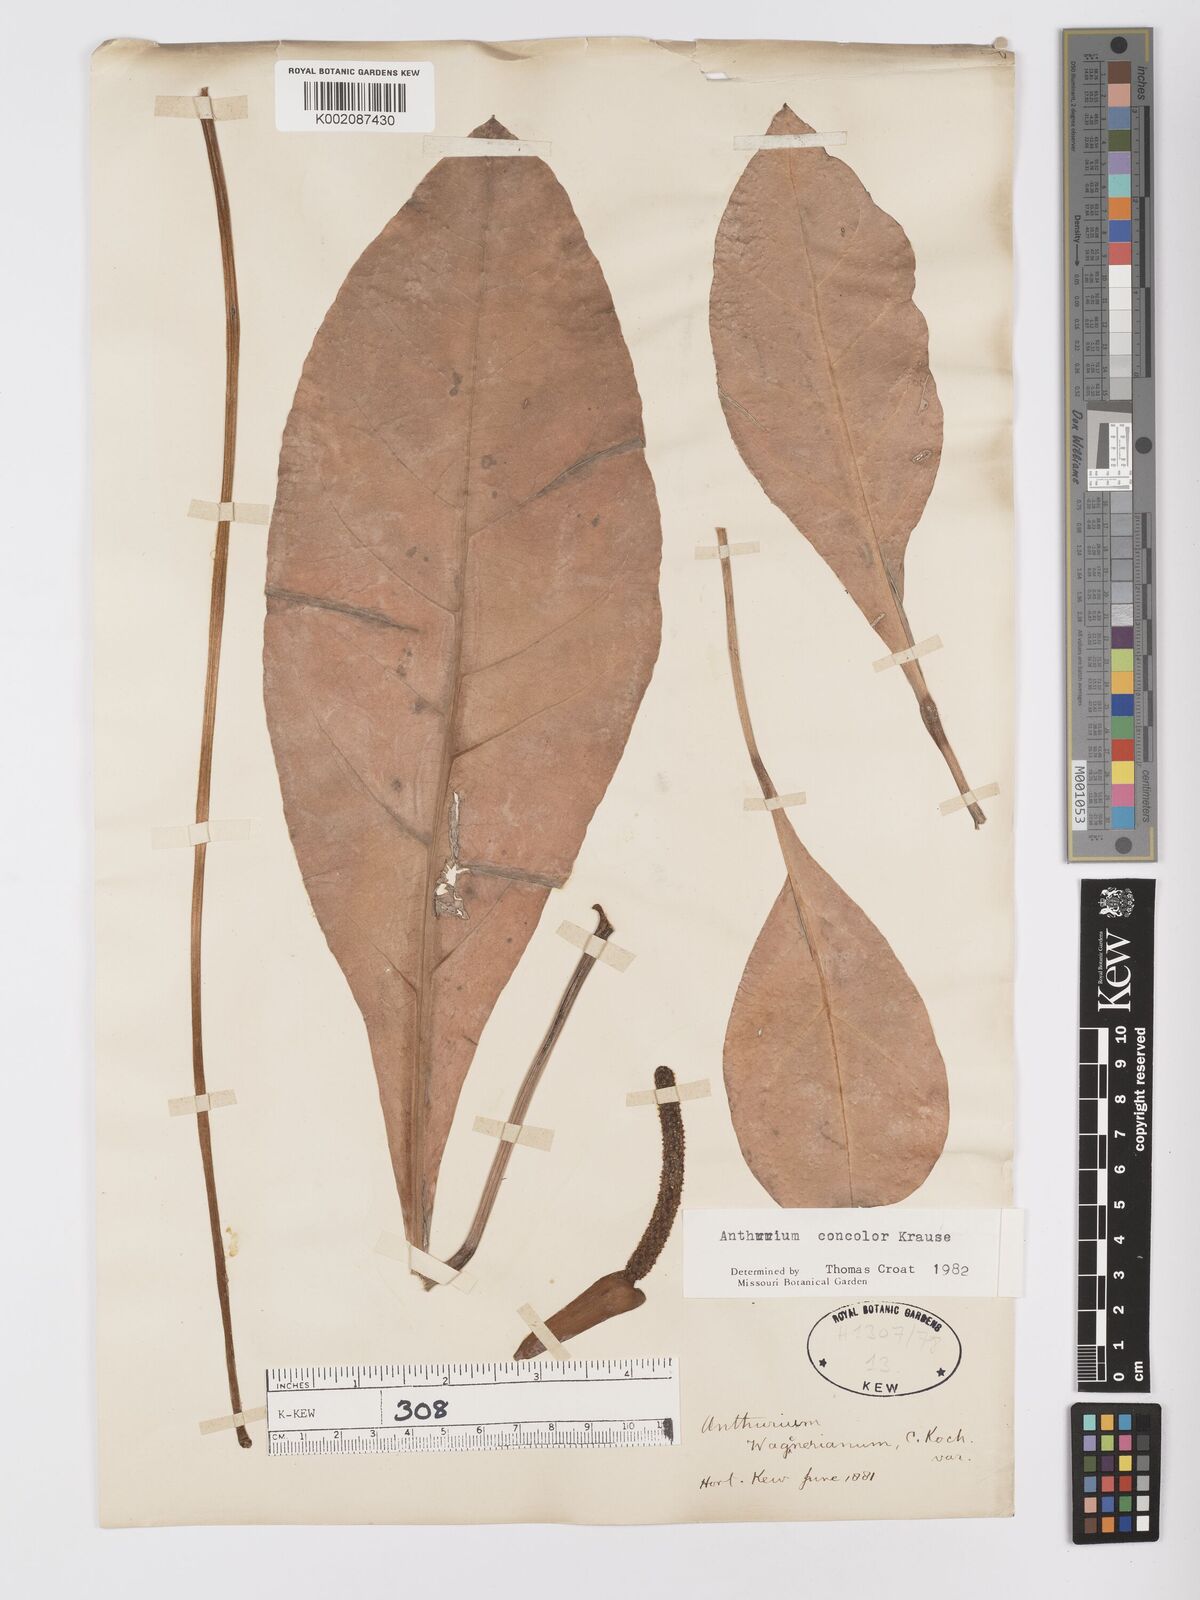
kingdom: Plantae
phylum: Tracheophyta
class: Liliopsida
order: Alismatales
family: Araceae
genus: Anthurium
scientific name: Anthurium concolor
